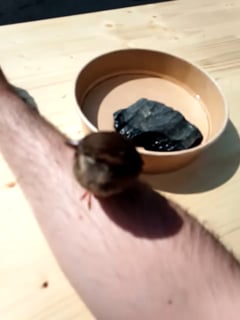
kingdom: Animalia
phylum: Chordata
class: Aves
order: Passeriformes
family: Passeridae
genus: Passer
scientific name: Passer domesticus
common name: House sparrow
